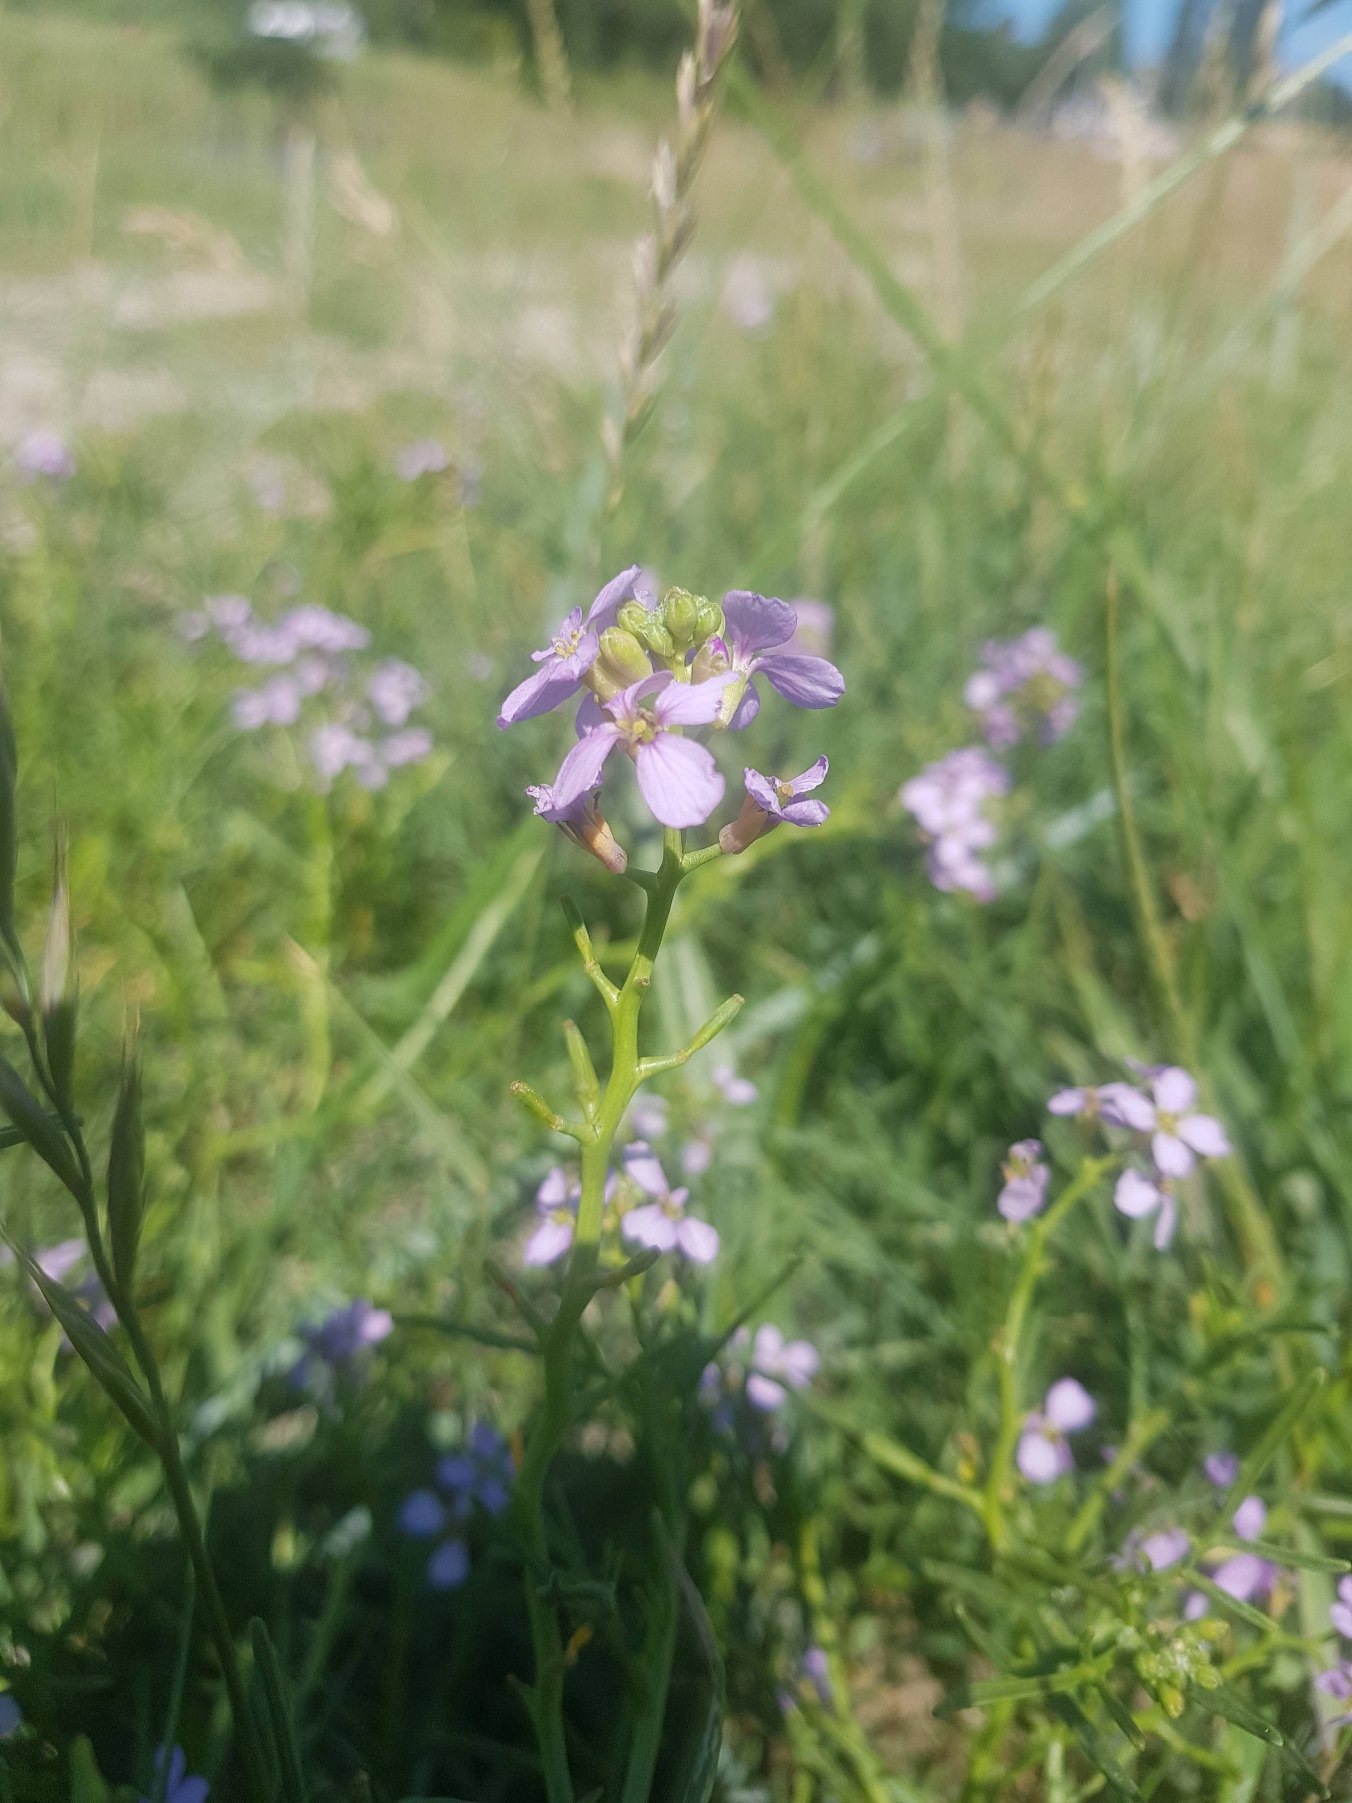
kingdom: Plantae
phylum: Tracheophyta
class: Magnoliopsida
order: Brassicales
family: Brassicaceae
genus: Cakile
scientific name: Cakile maritima
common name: Strandsennep
